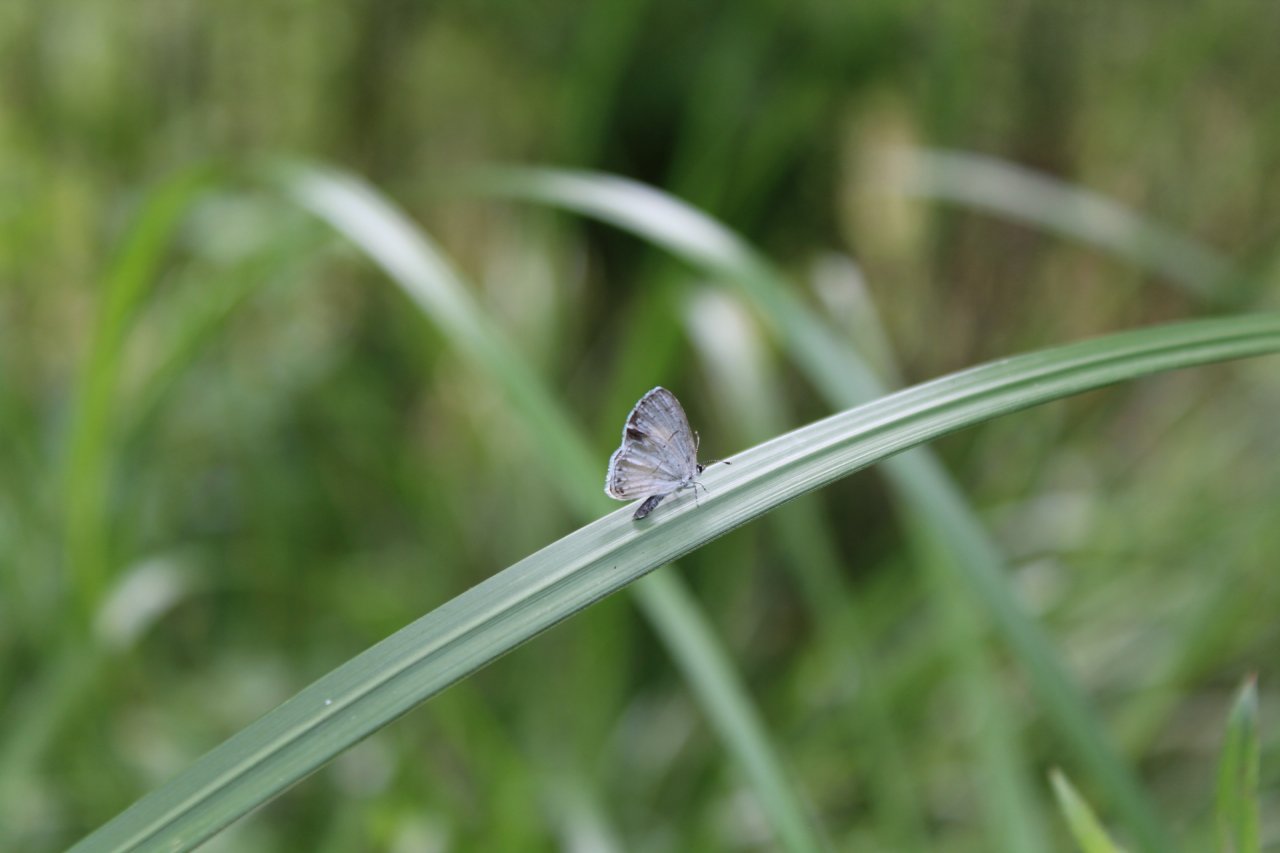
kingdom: Animalia
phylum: Arthropoda
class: Insecta
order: Lepidoptera
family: Lycaenidae
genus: Cyaniris
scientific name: Cyaniris neglecta
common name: Summer Azure
